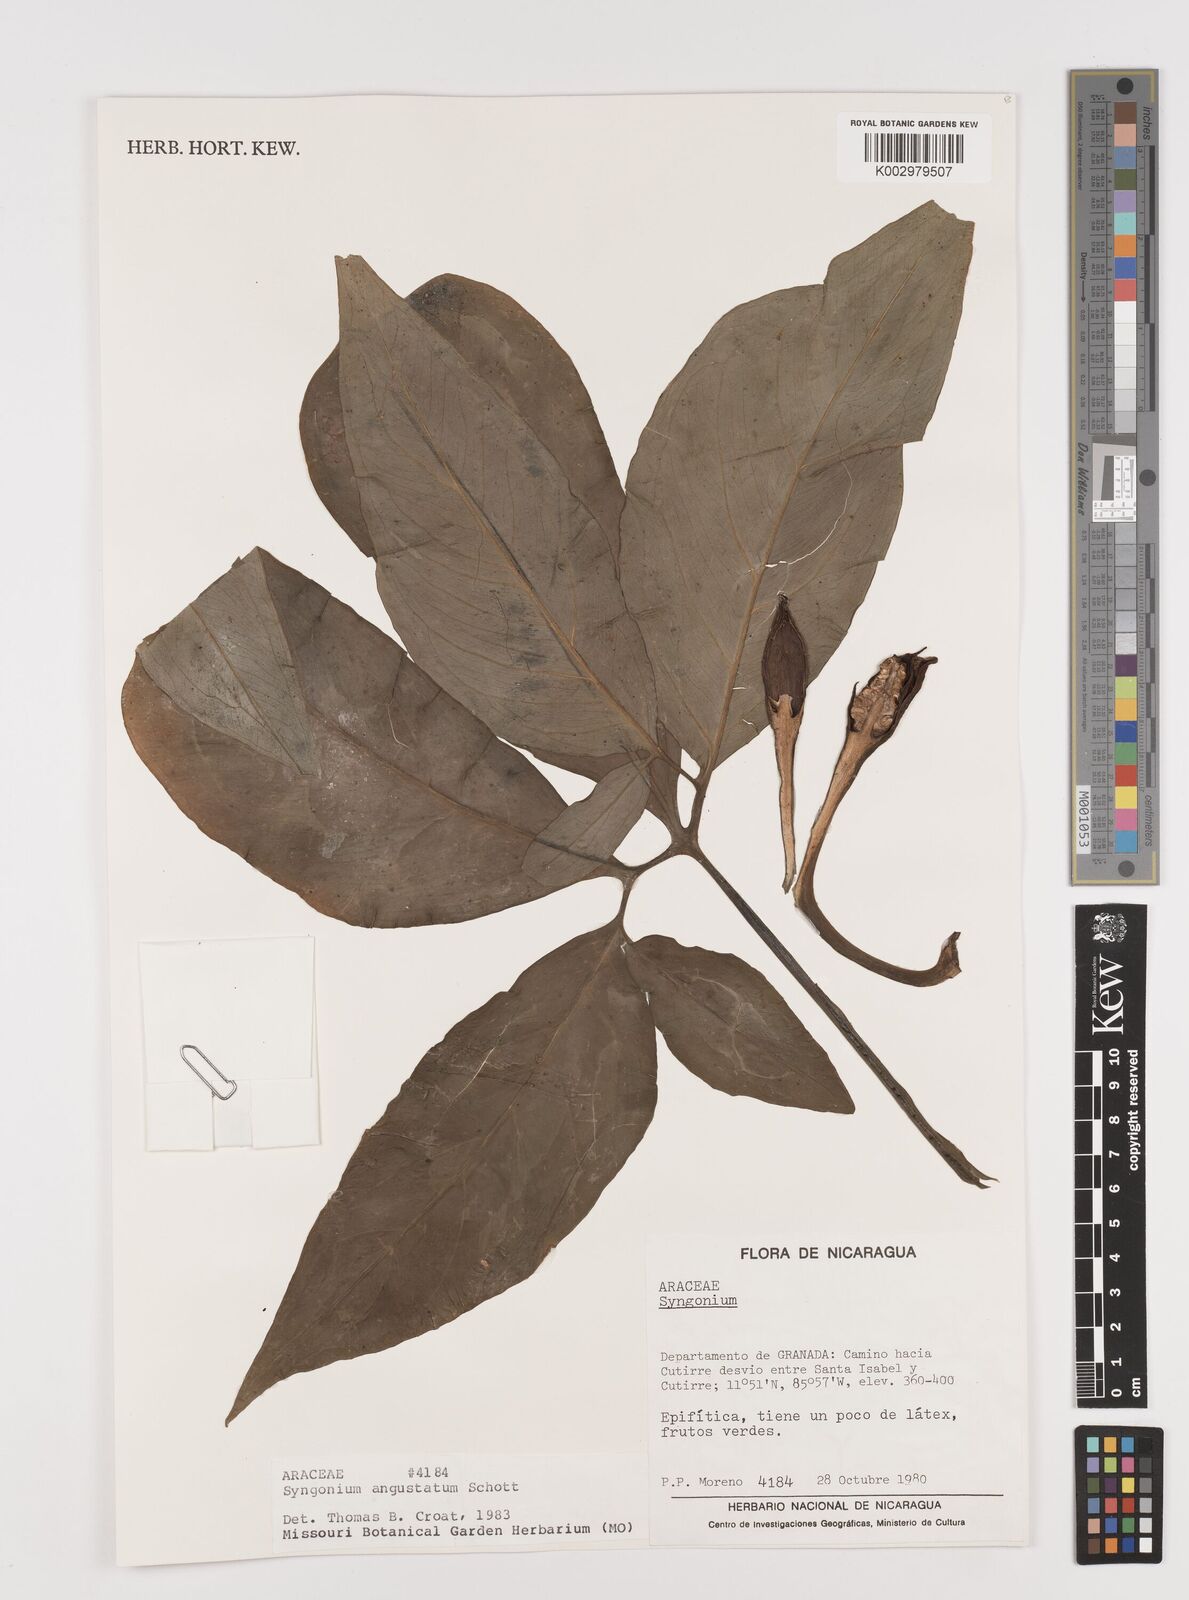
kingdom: Plantae
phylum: Tracheophyta
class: Liliopsida
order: Alismatales
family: Araceae
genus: Syngonium
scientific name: Syngonium angustatum
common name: Fivefingers
